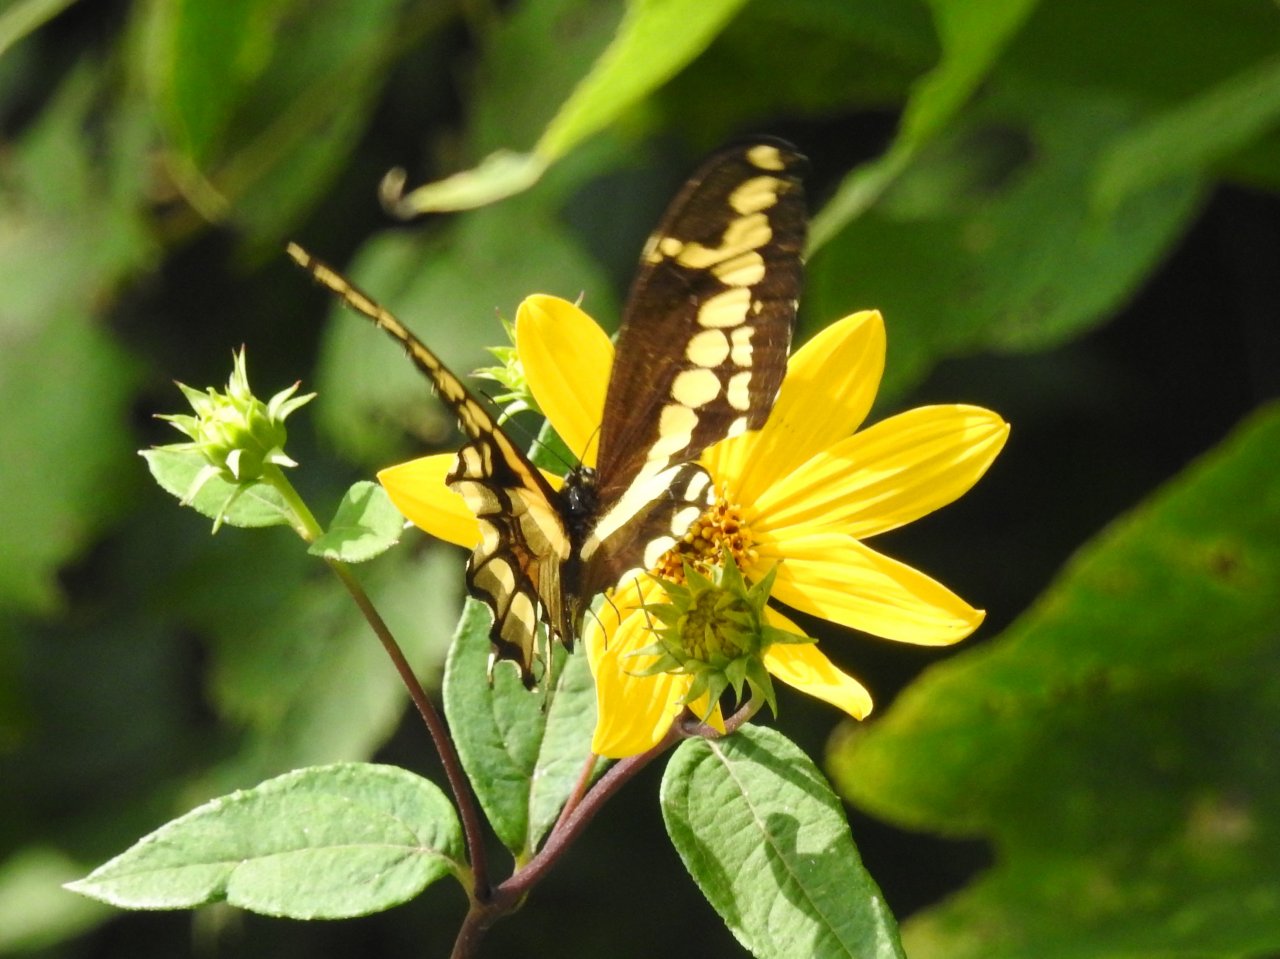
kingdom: Animalia
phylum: Arthropoda
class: Insecta
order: Lepidoptera
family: Papilionidae
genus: Papilio
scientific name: Papilio cresphontes
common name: Eastern Giant Swallowtail
